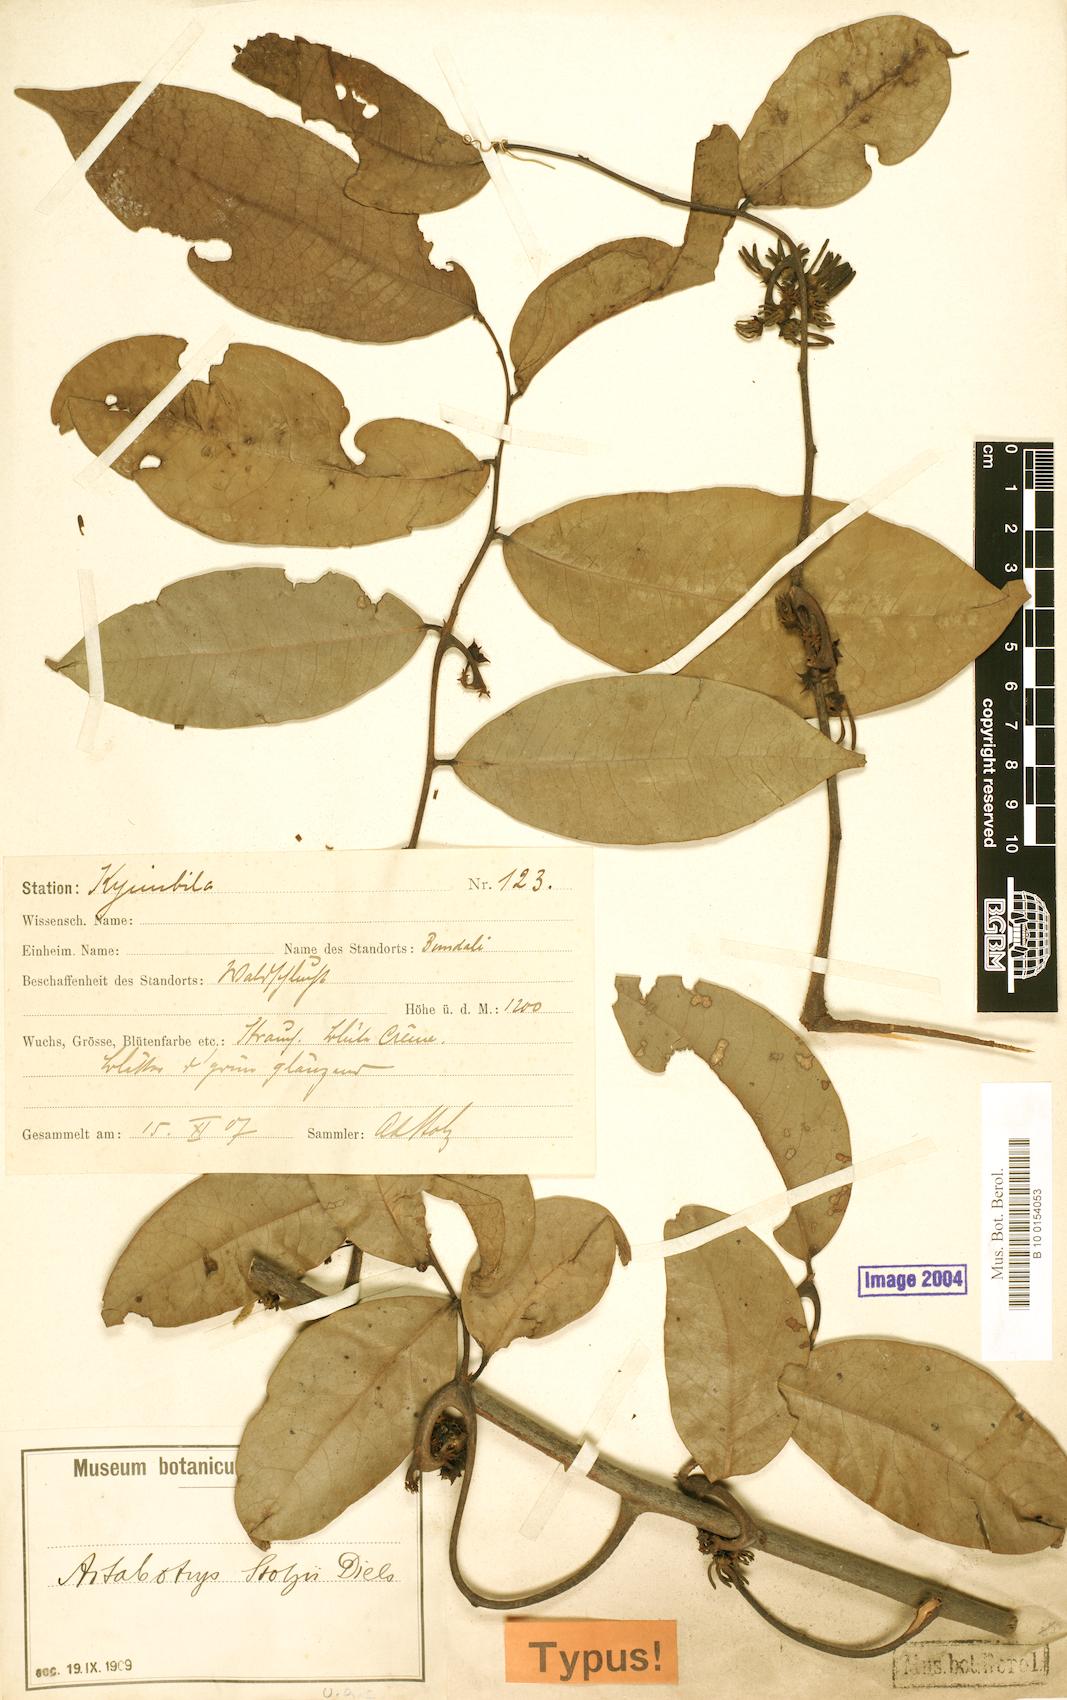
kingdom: Plantae
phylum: Tracheophyta
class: Magnoliopsida
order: Magnoliales
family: Annonaceae
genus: Artabotrys
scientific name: Artabotrys stolzii
